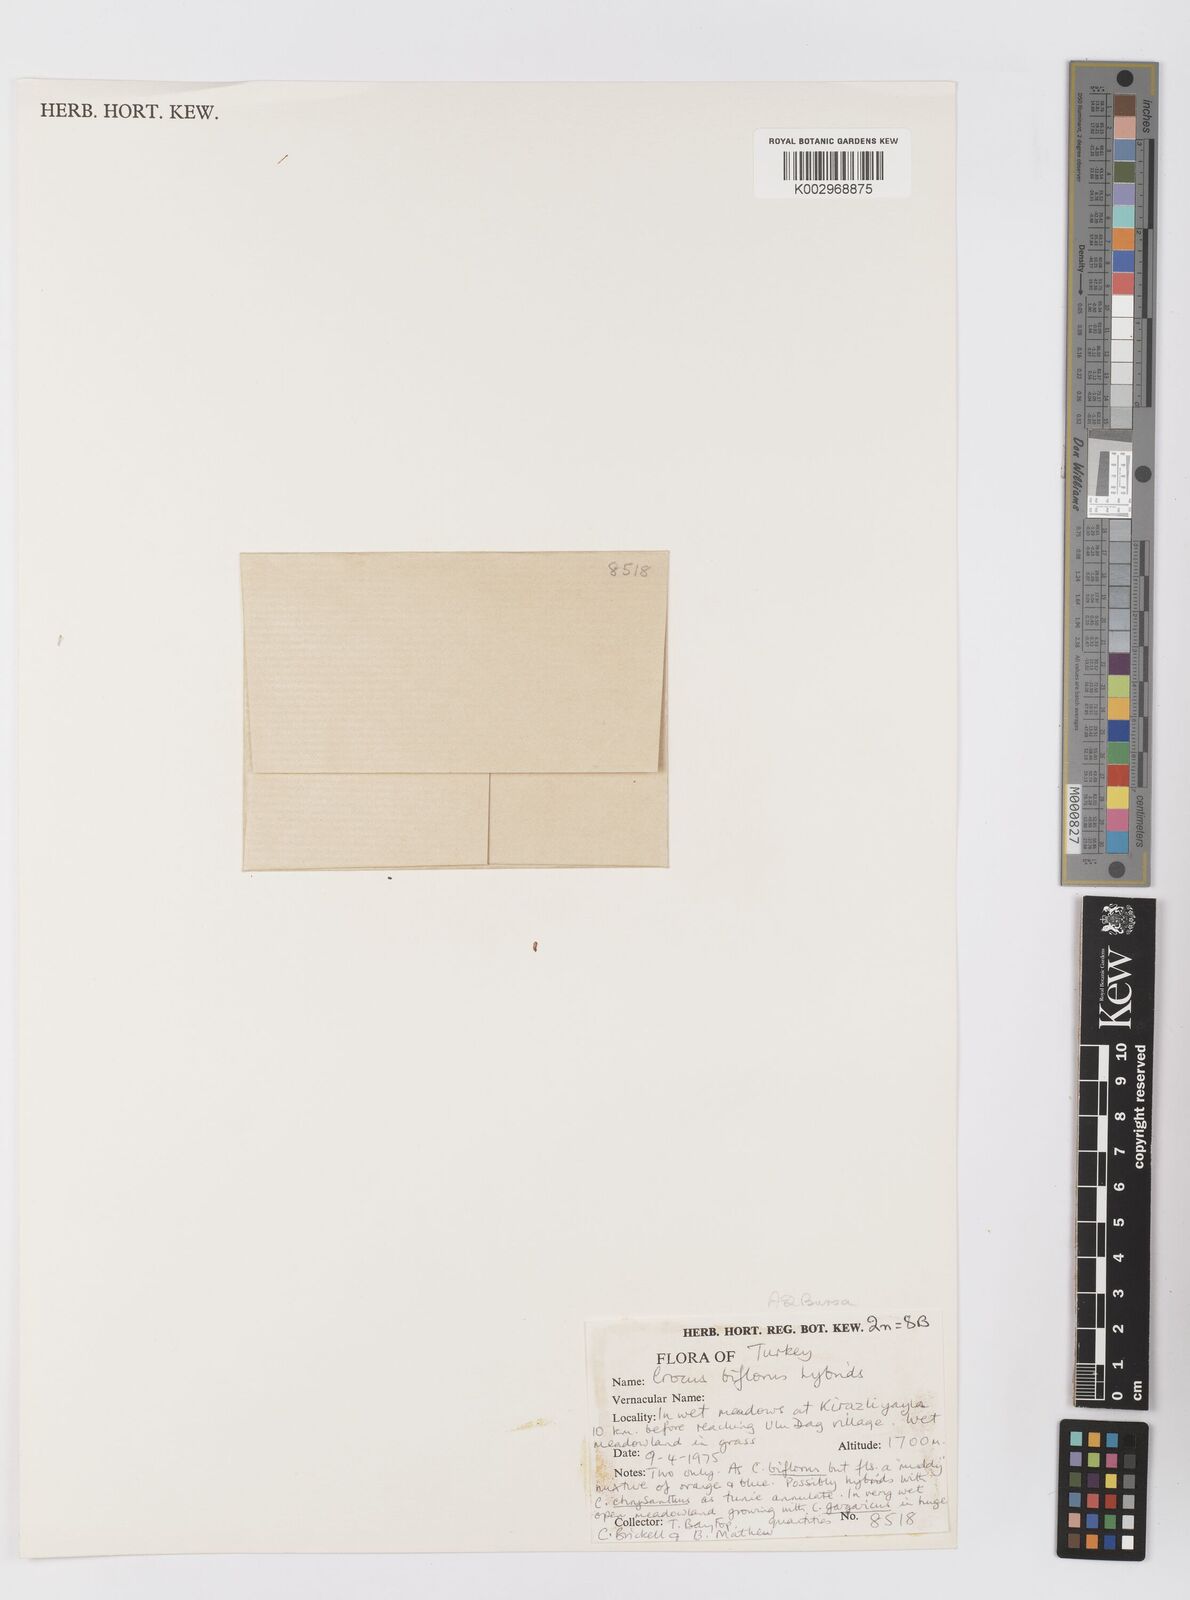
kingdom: Plantae
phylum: Tracheophyta
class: Liliopsida
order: Asparagales
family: Iridaceae
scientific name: Iridaceae
